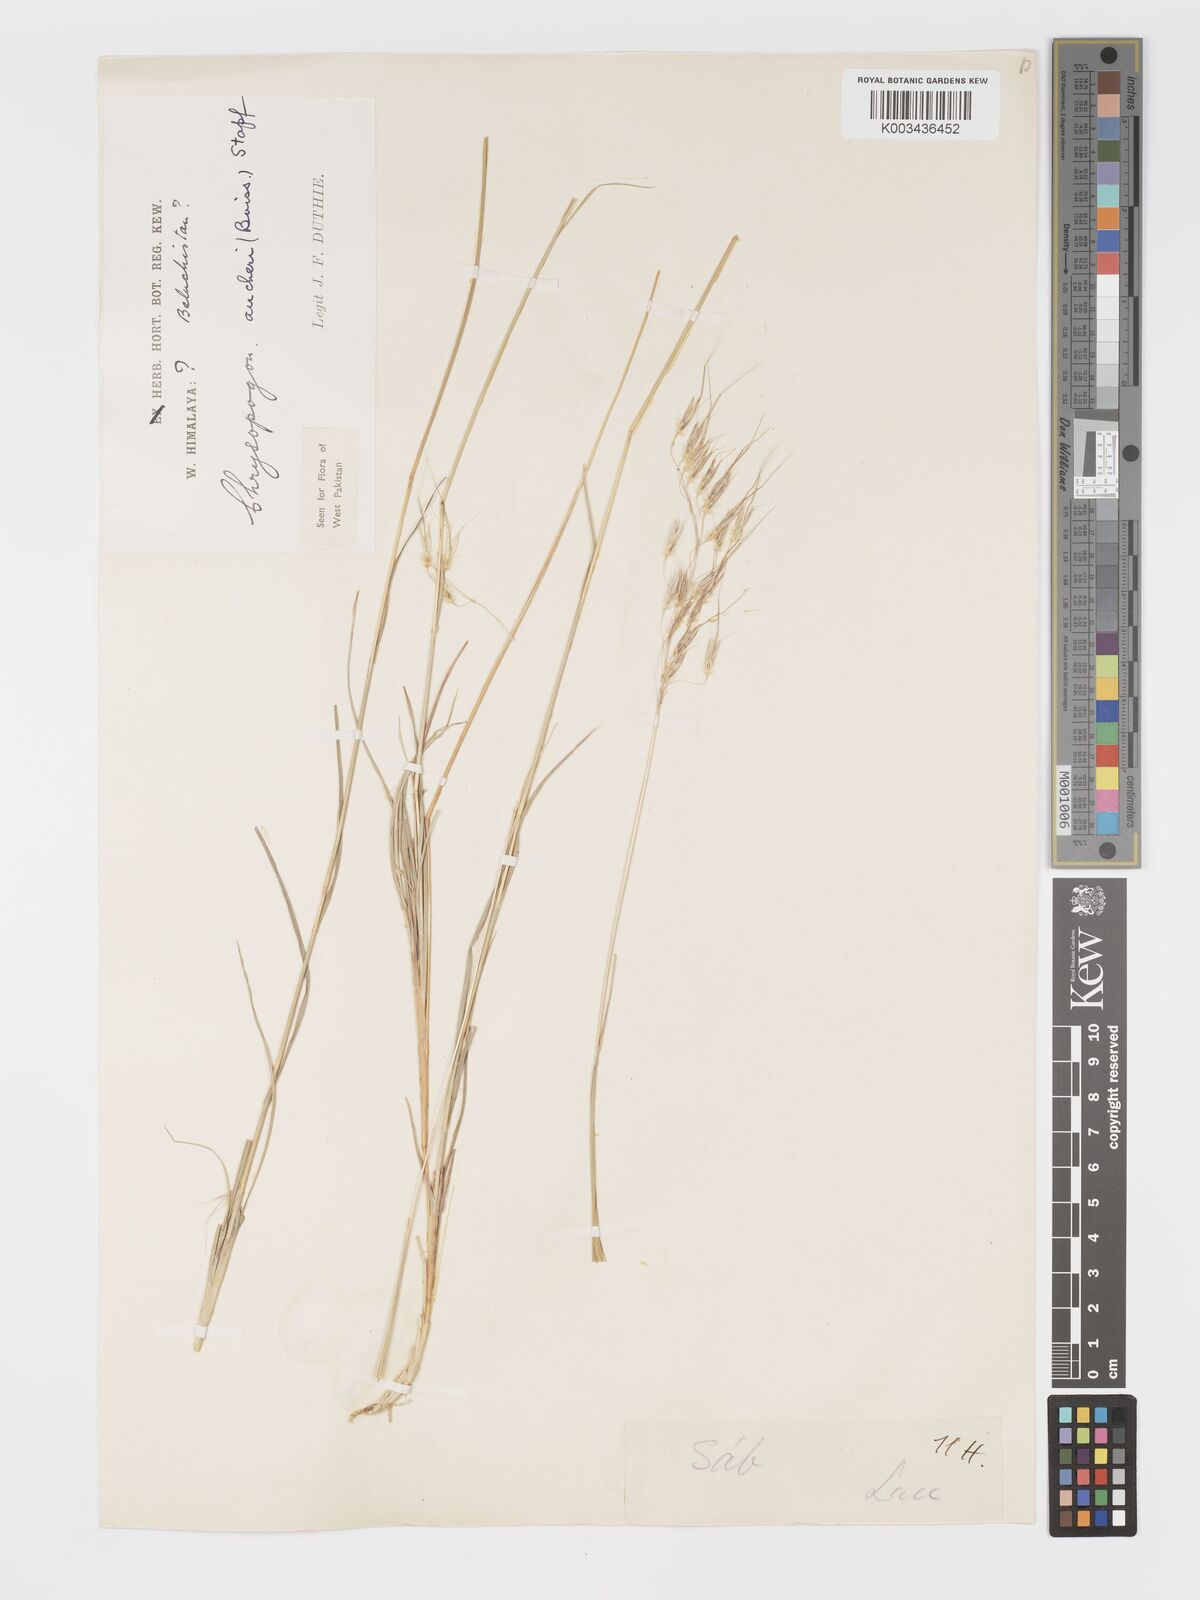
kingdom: Plantae
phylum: Tracheophyta
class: Liliopsida
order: Poales
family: Poaceae
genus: Chrysopogon
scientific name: Chrysopogon aucheri
